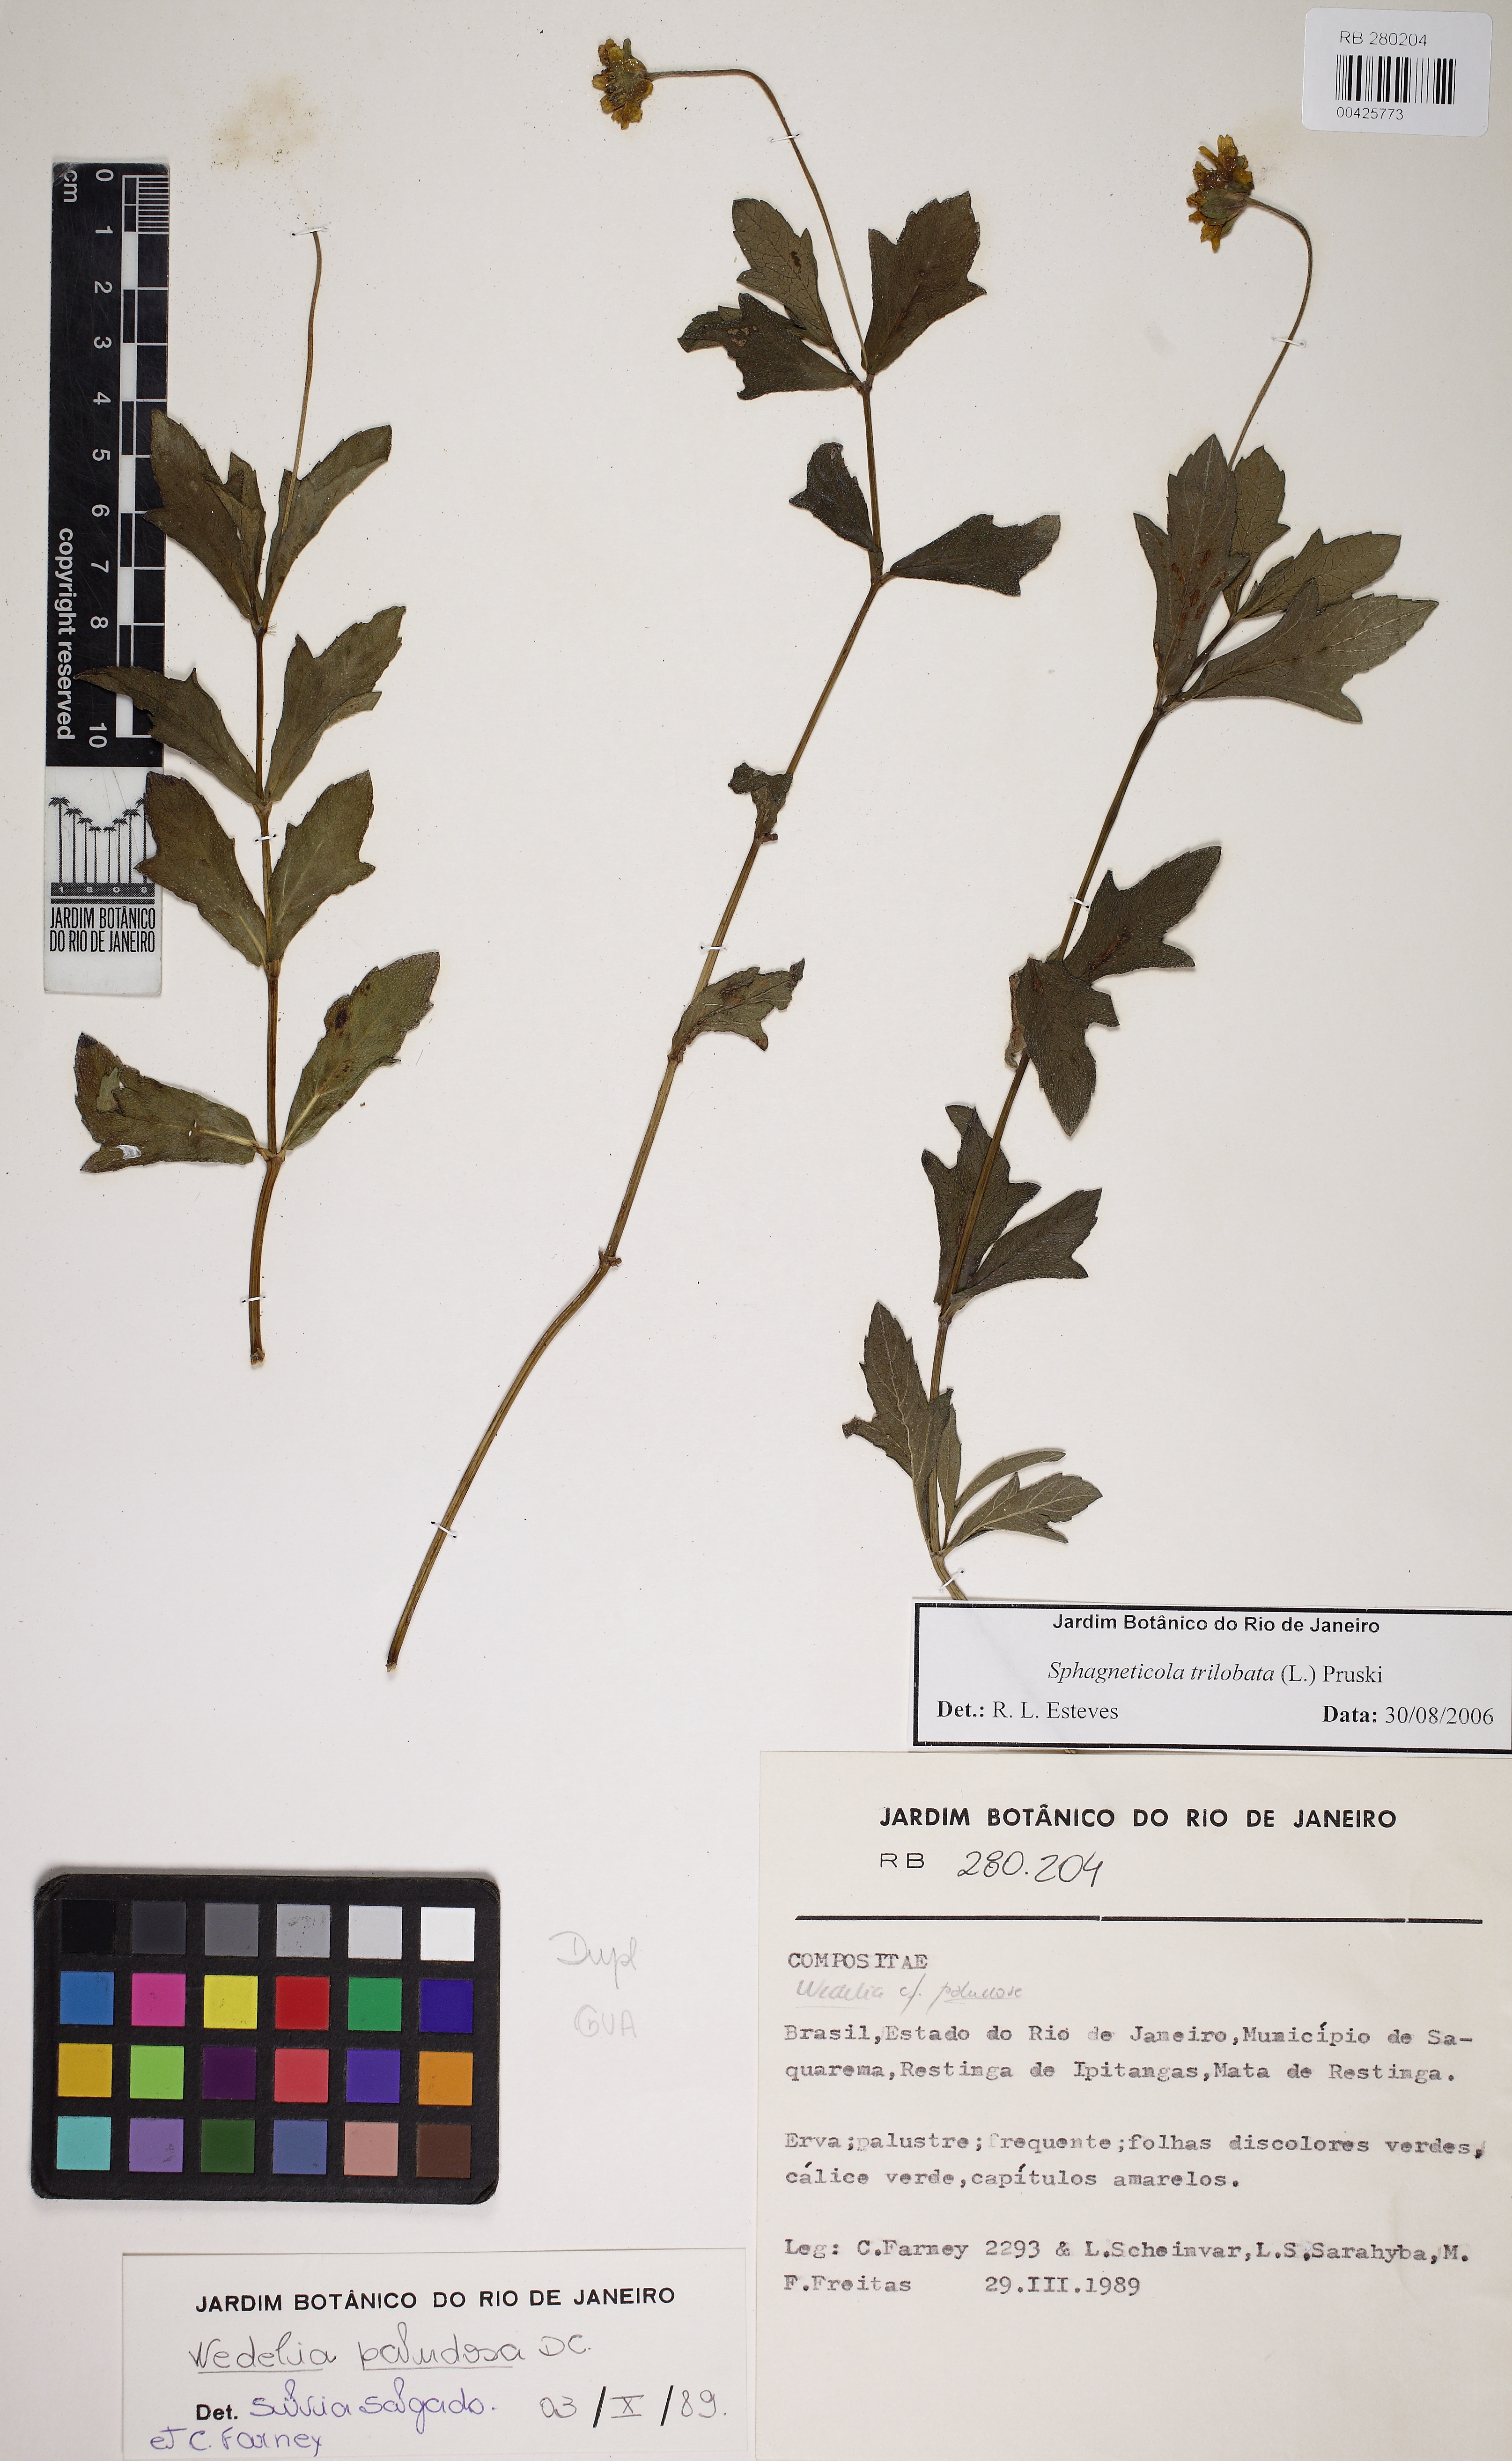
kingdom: Plantae
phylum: Tracheophyta
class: Magnoliopsida
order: Asterales
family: Asteraceae
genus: Sphagneticola
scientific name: Sphagneticola trilobata
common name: Bay biscayne creeping-oxeye
